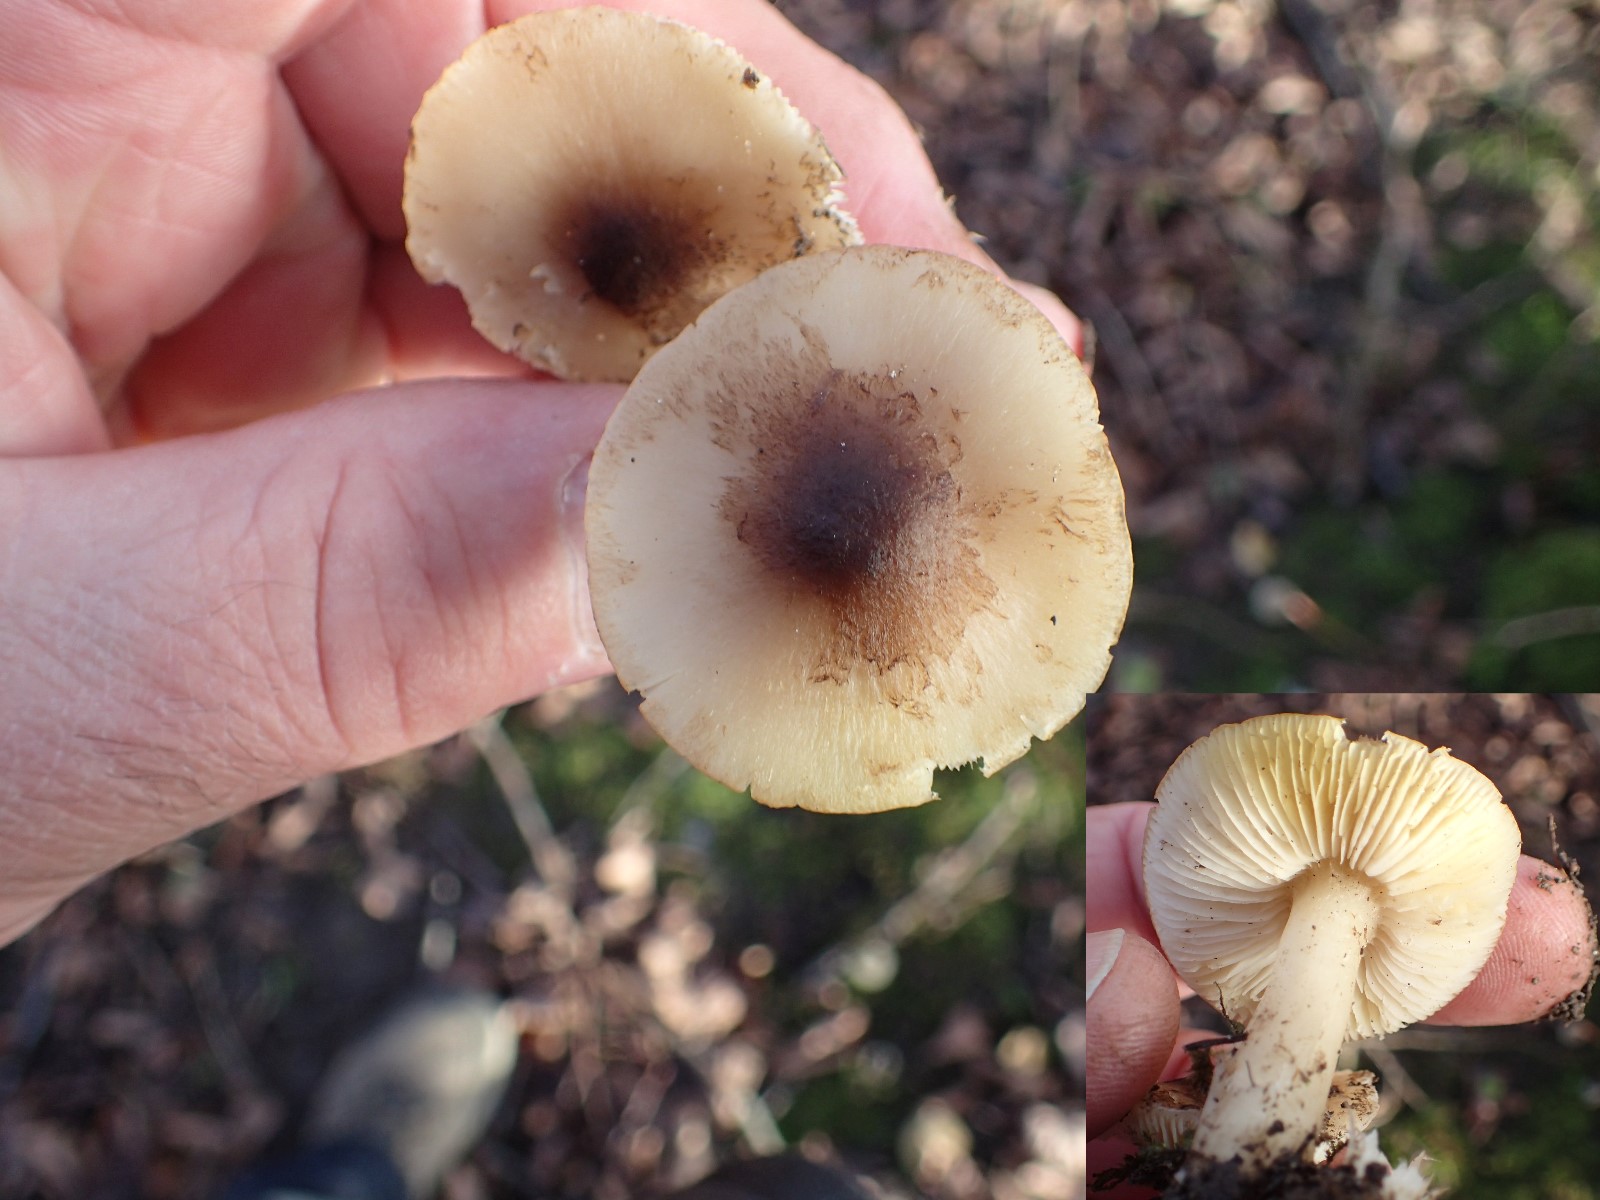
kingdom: Fungi
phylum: Basidiomycota
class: Agaricomycetes
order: Agaricales
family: Tricholomataceae
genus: Tricholoma
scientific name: Tricholoma scalpturatum
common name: gulplettet ridderhat
